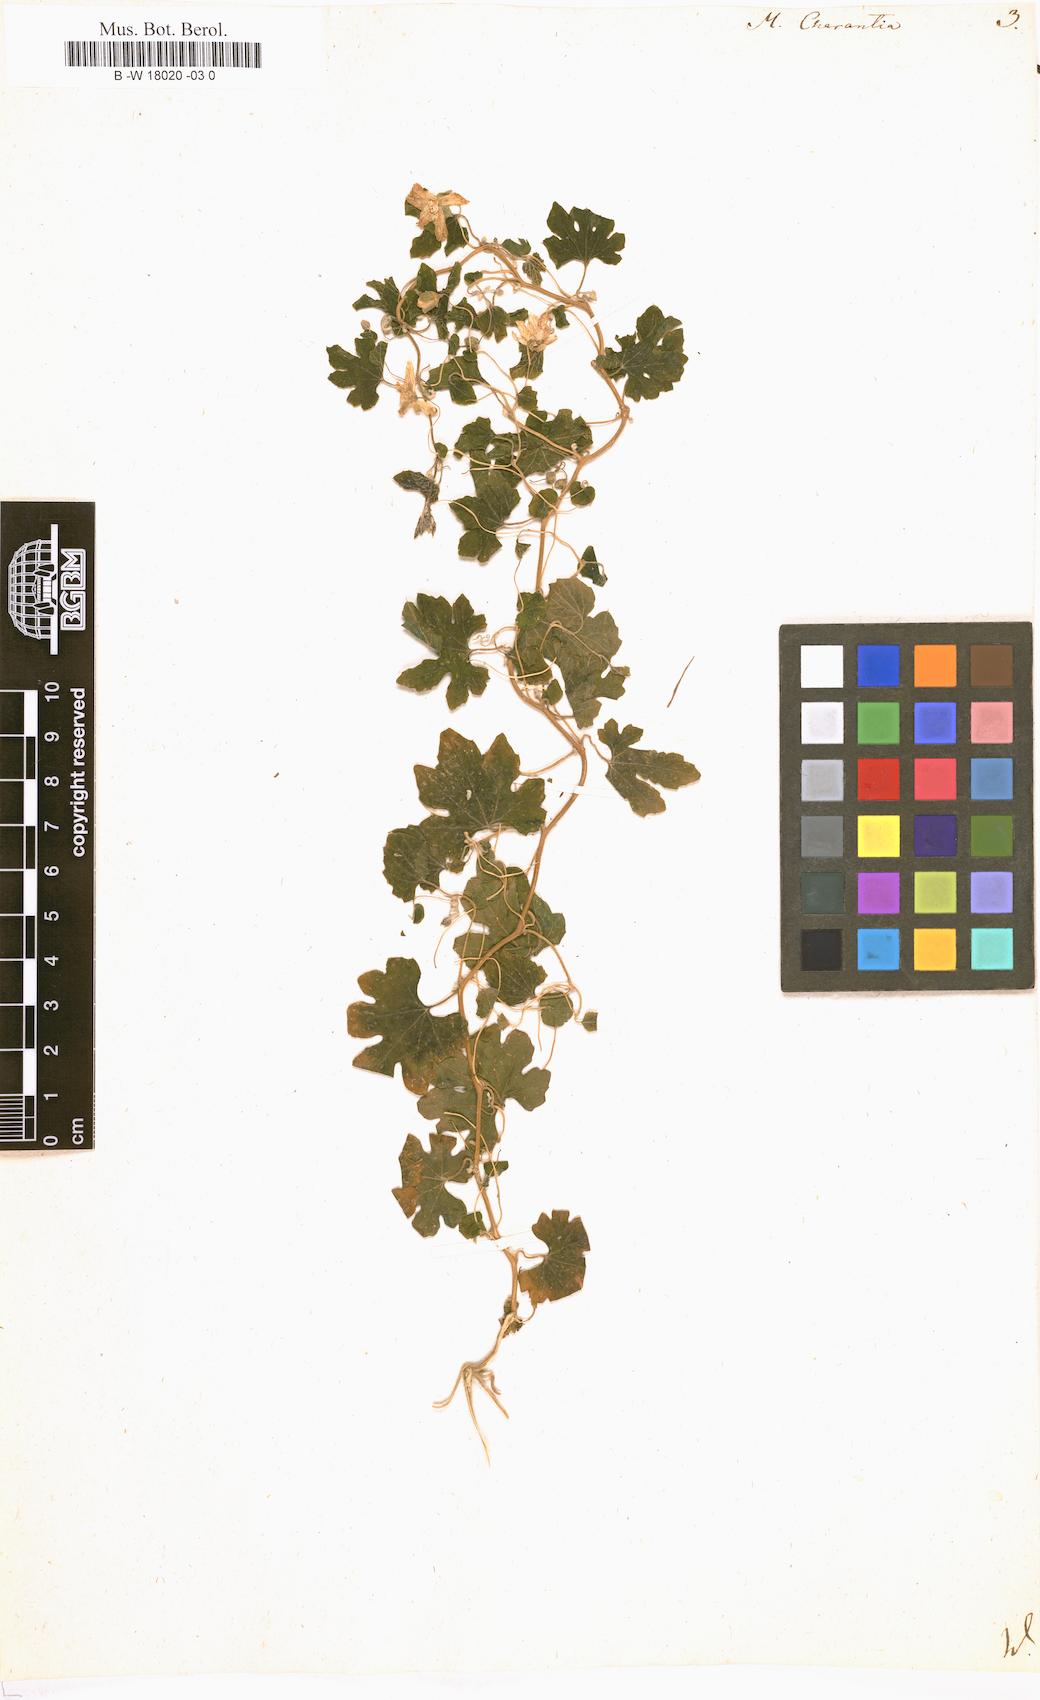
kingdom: Plantae
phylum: Tracheophyta
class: Magnoliopsida
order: Cucurbitales
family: Cucurbitaceae
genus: Momordica
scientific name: Momordica charantia
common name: Balsampear
